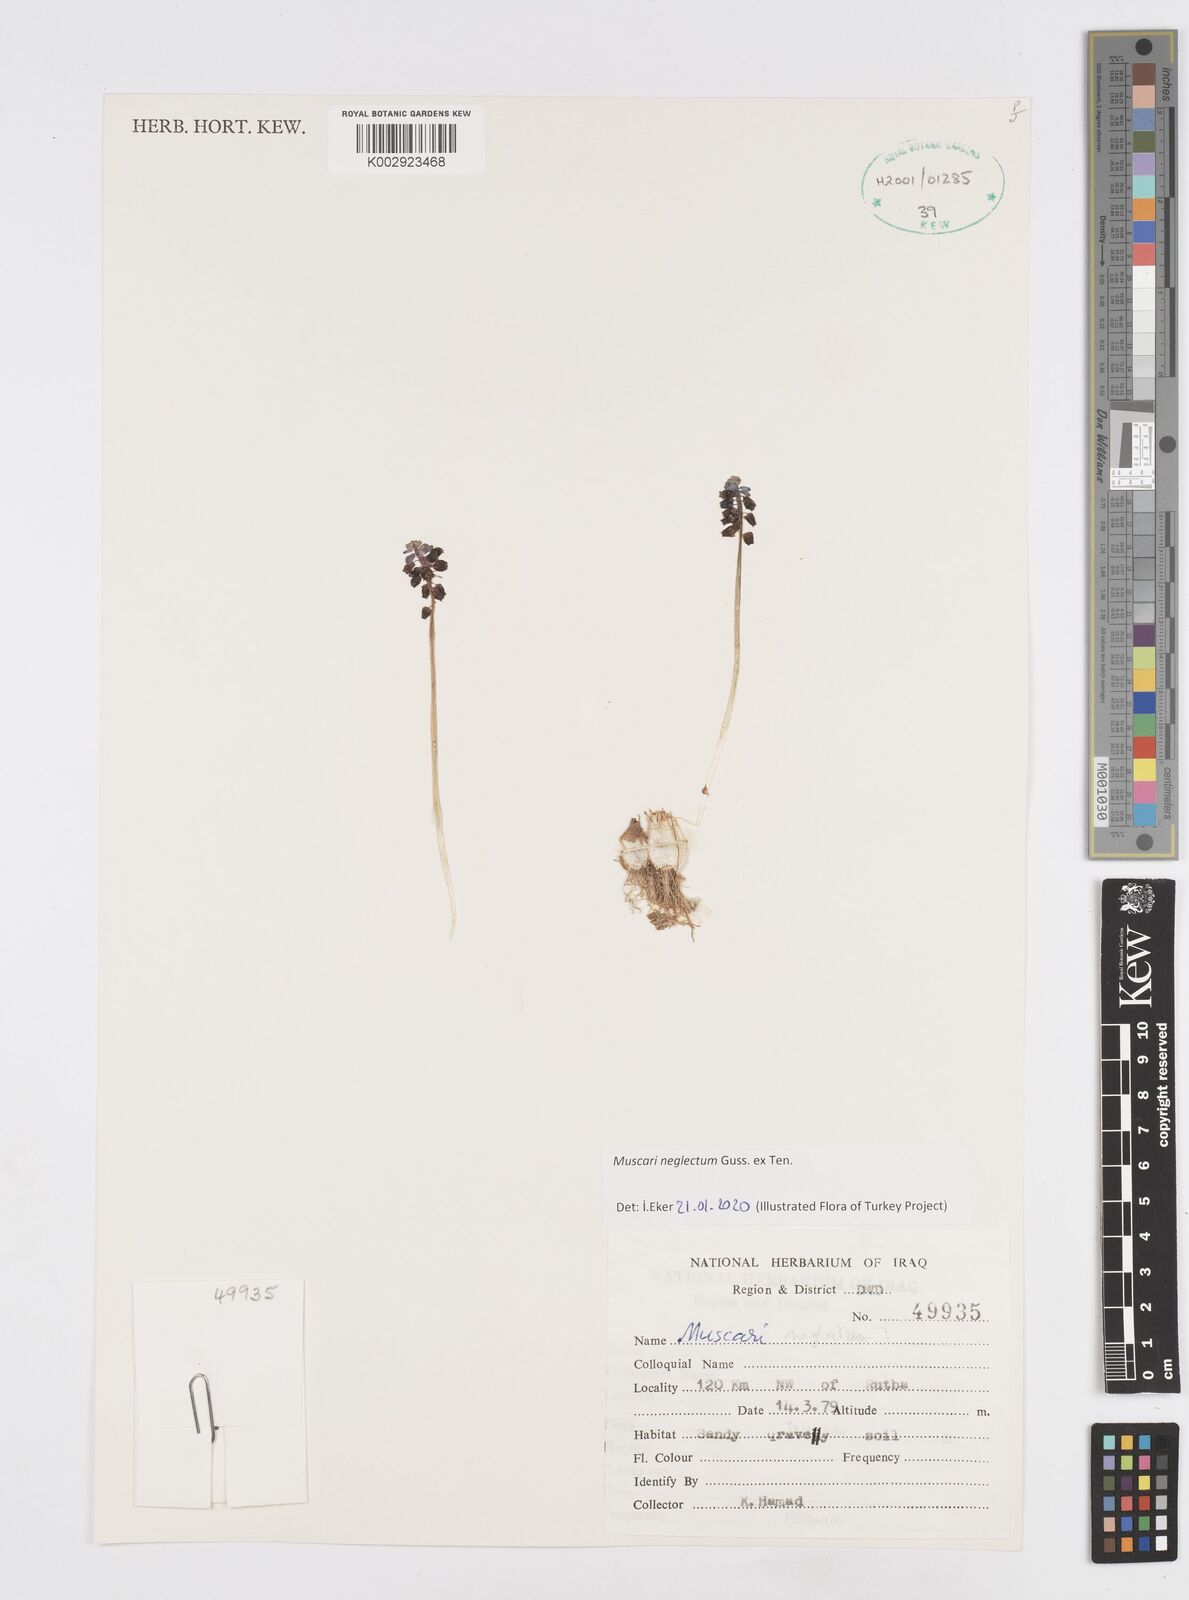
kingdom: Plantae
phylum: Tracheophyta
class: Liliopsida
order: Asparagales
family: Asparagaceae
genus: Muscari
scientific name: Muscari neglectum
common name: Grape-hyacinth
